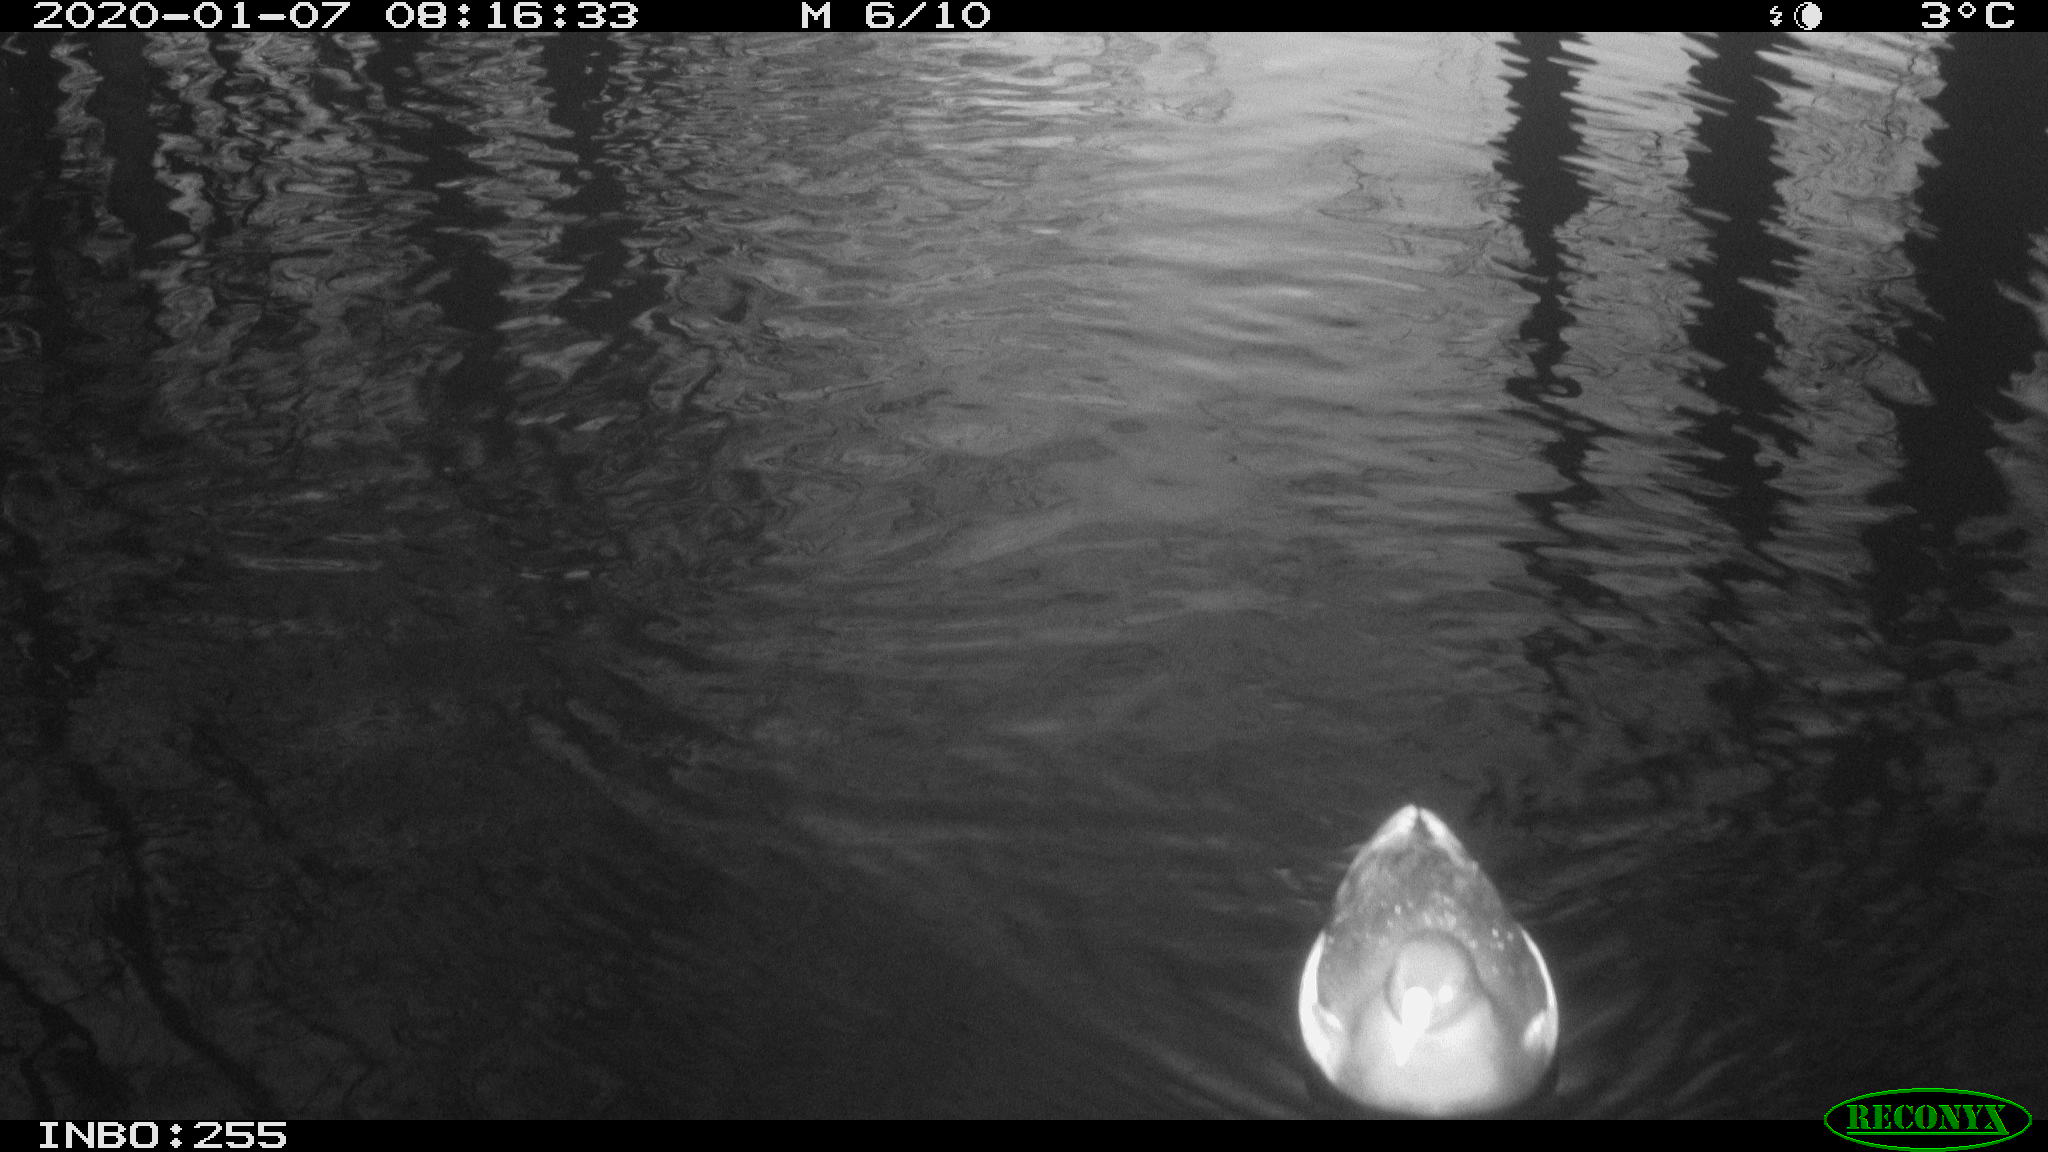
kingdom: Animalia
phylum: Chordata
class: Aves
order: Gruiformes
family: Rallidae
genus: Gallinula
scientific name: Gallinula chloropus
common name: Common moorhen
